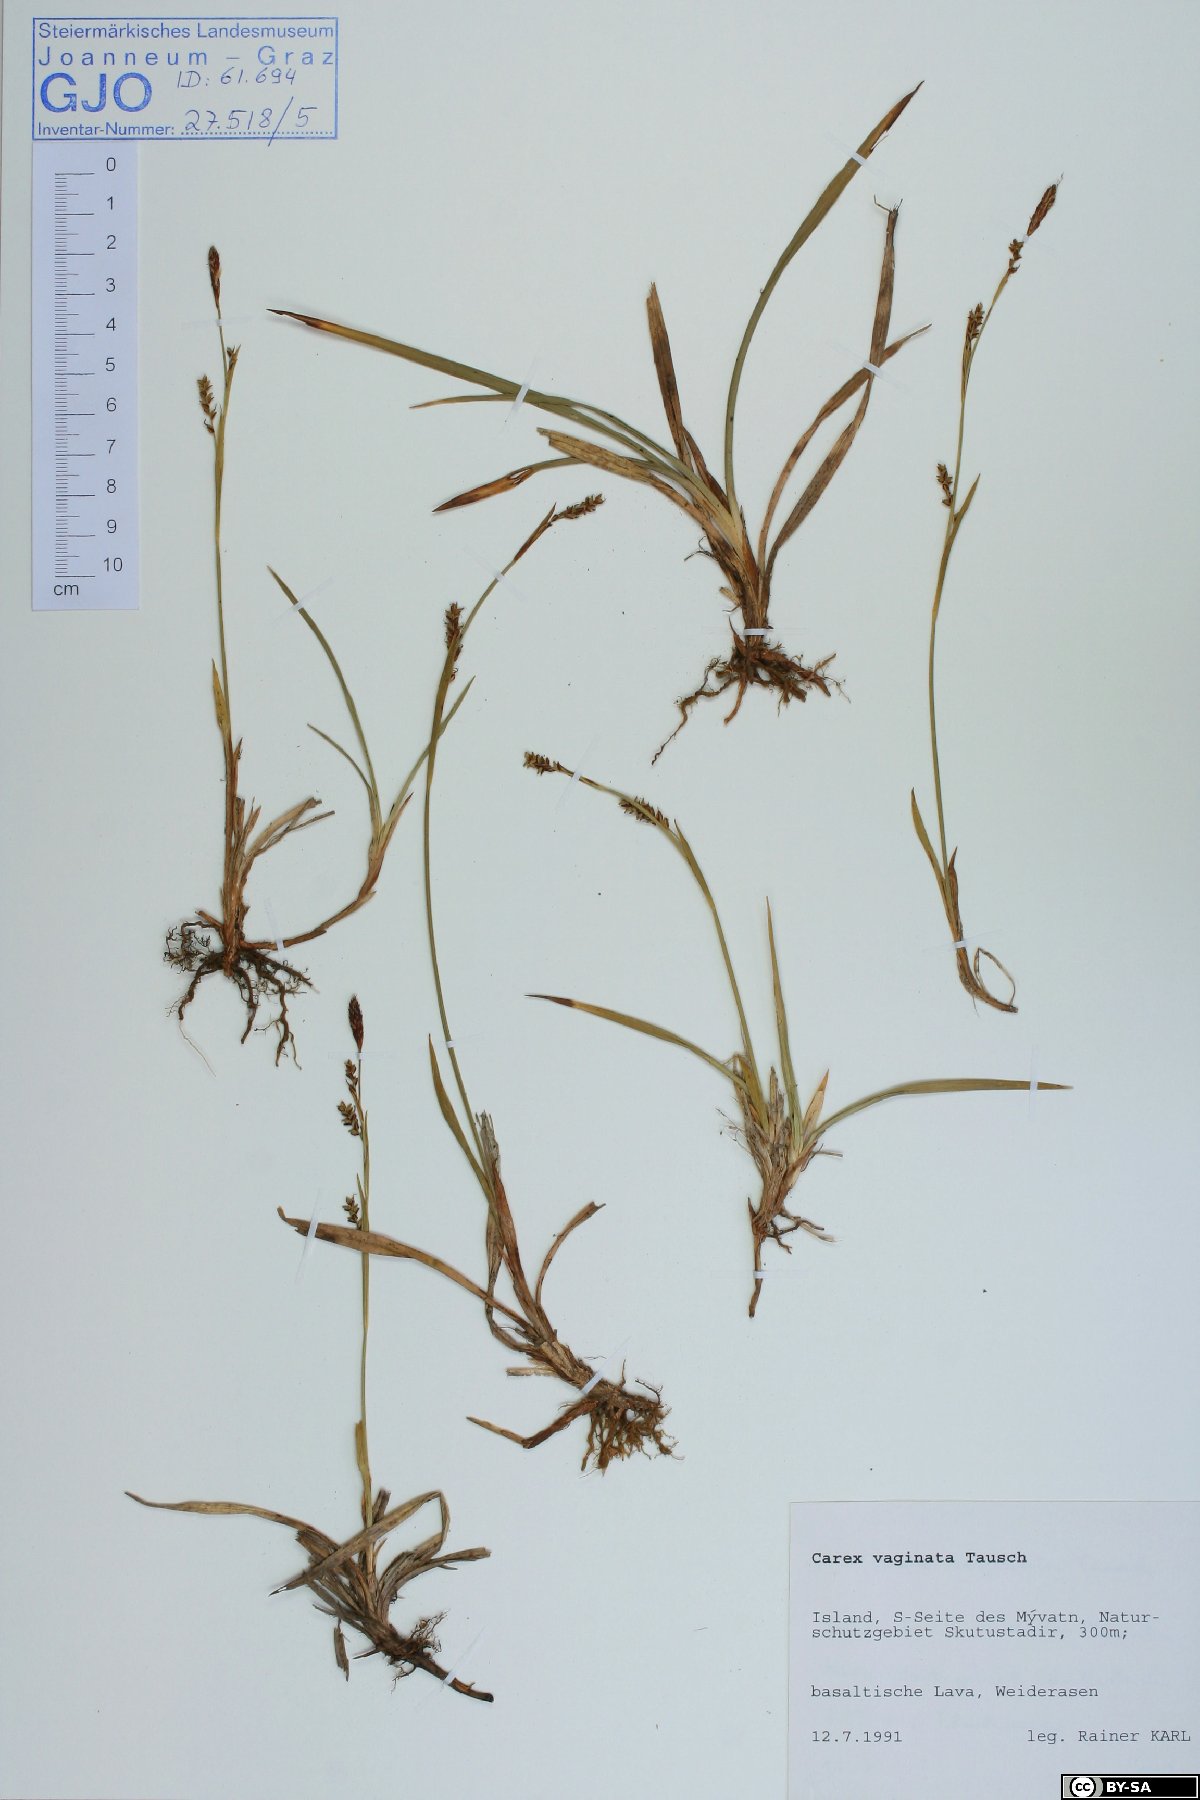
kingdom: Plantae
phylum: Tracheophyta
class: Liliopsida
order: Poales
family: Cyperaceae
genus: Carex
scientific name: Carex vaginata
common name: Sheathed sedge
